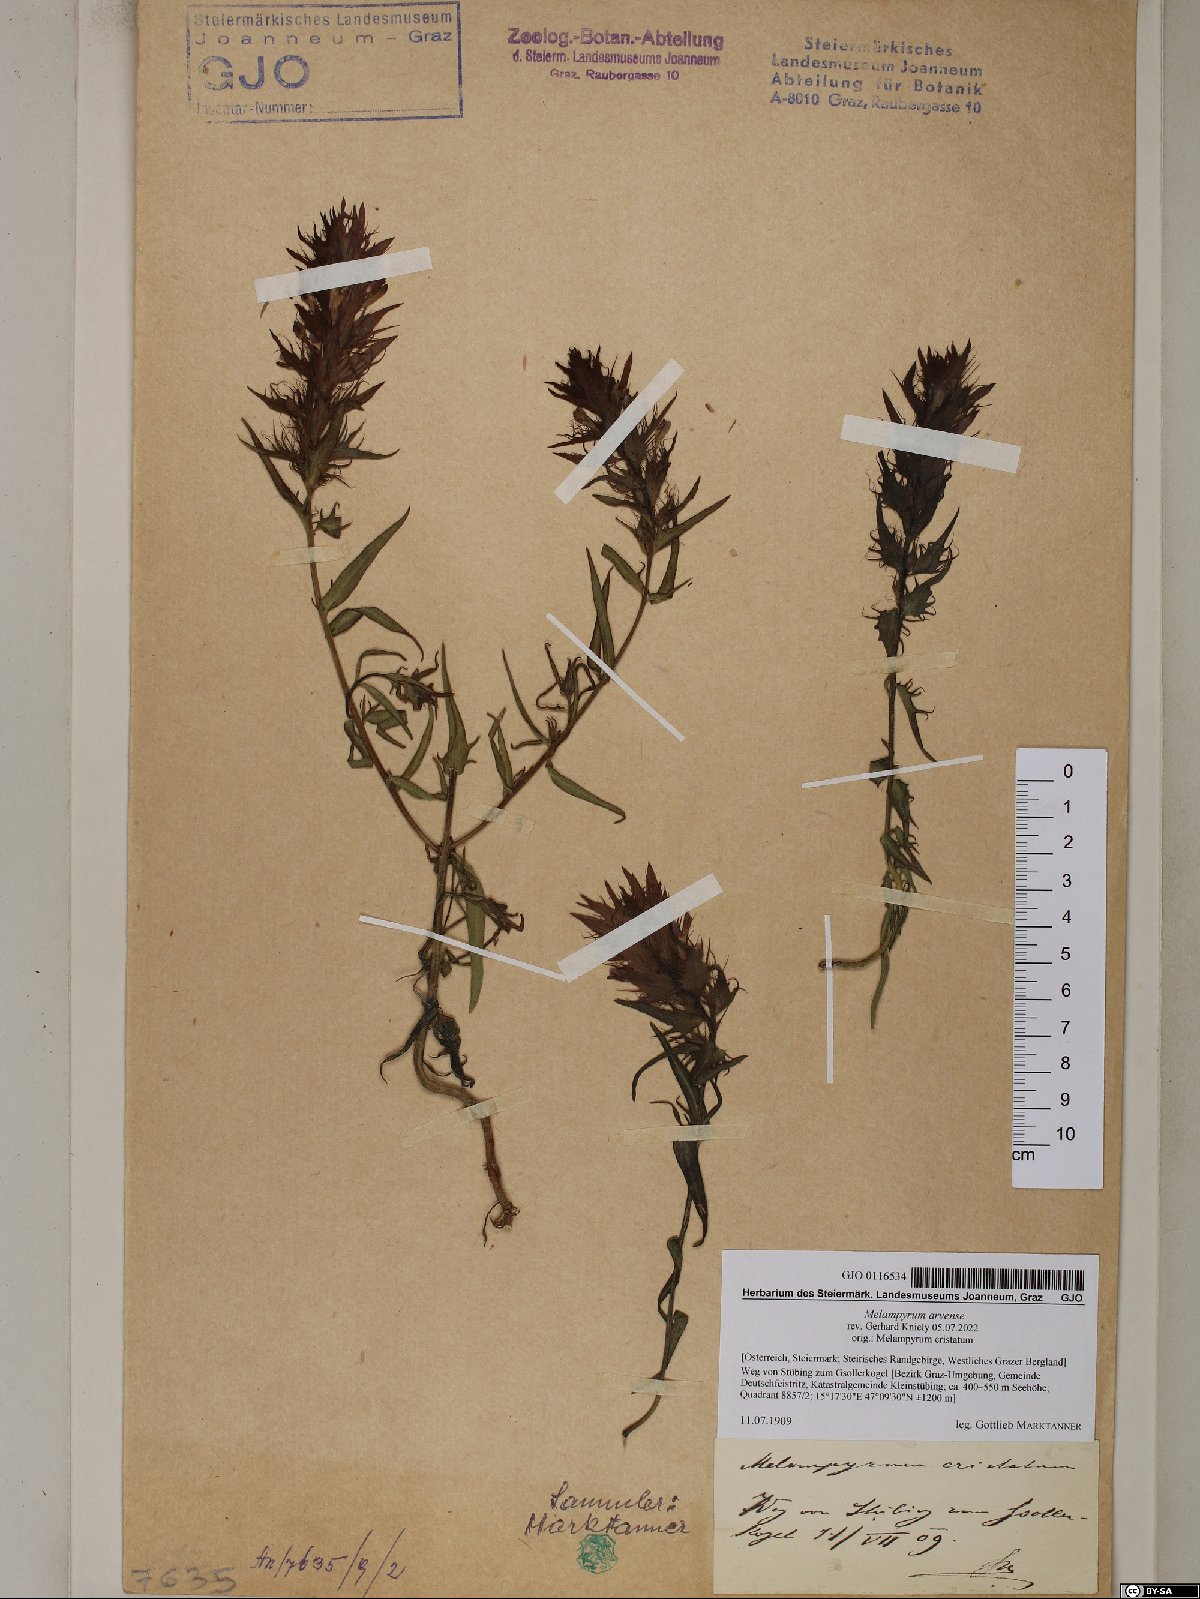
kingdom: Plantae
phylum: Tracheophyta
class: Magnoliopsida
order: Lamiales
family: Orobanchaceae
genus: Melampyrum
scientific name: Melampyrum arvense
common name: Field cow-wheat
